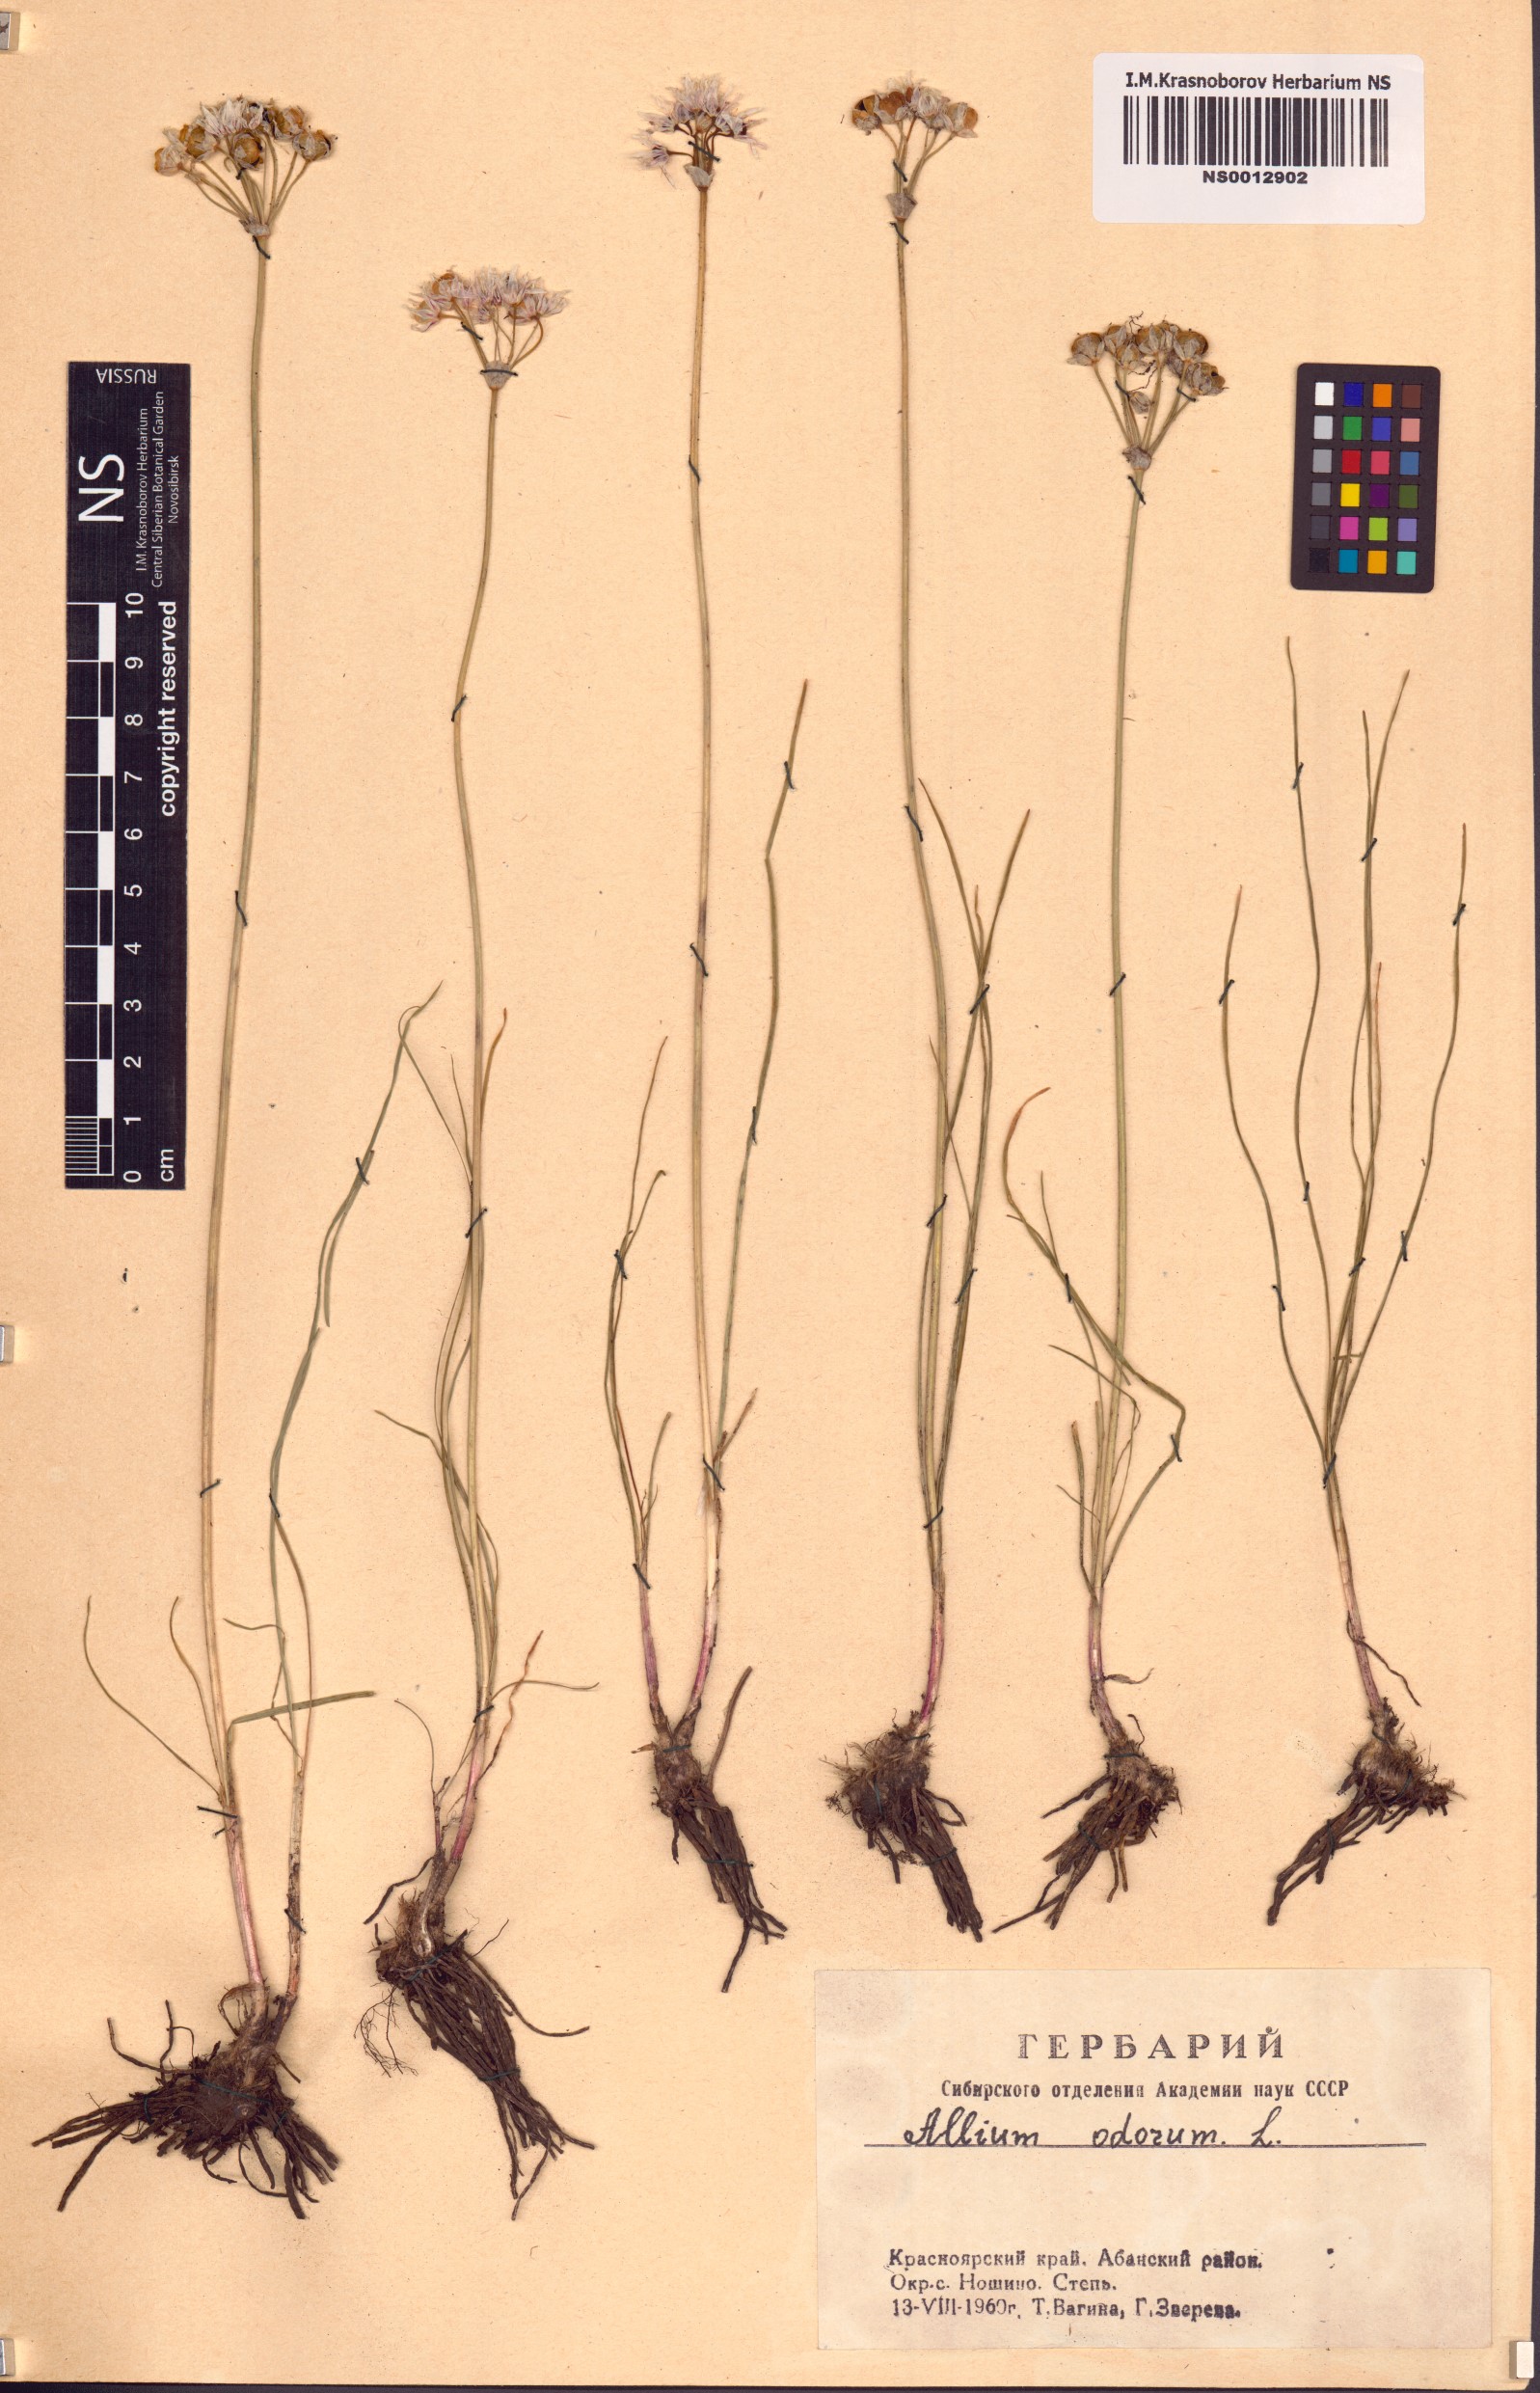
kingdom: Plantae
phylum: Tracheophyta
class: Liliopsida
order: Asparagales
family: Amaryllidaceae
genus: Allium
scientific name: Allium ramosum
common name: Fragrant garlic
